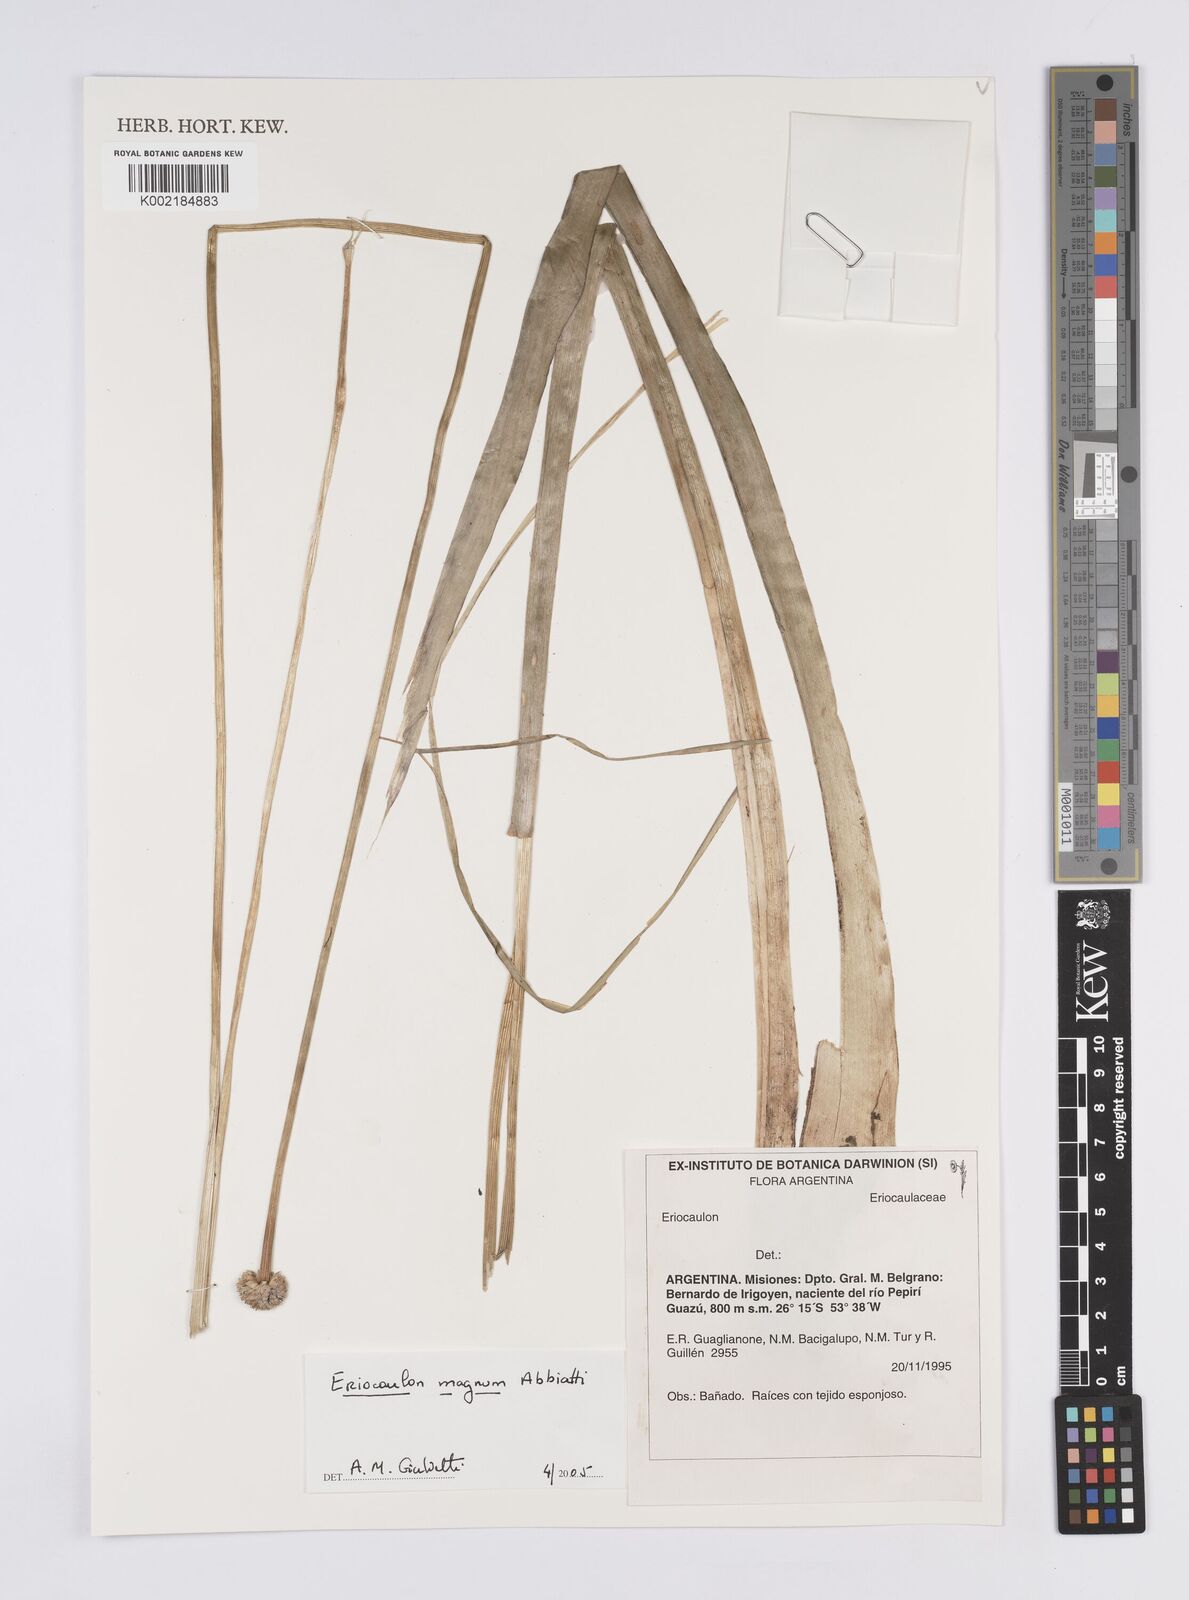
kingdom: Plantae
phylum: Tracheophyta
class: Liliopsida
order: Poales
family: Eriocaulaceae
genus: Eriocaulon
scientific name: Eriocaulon magnum
